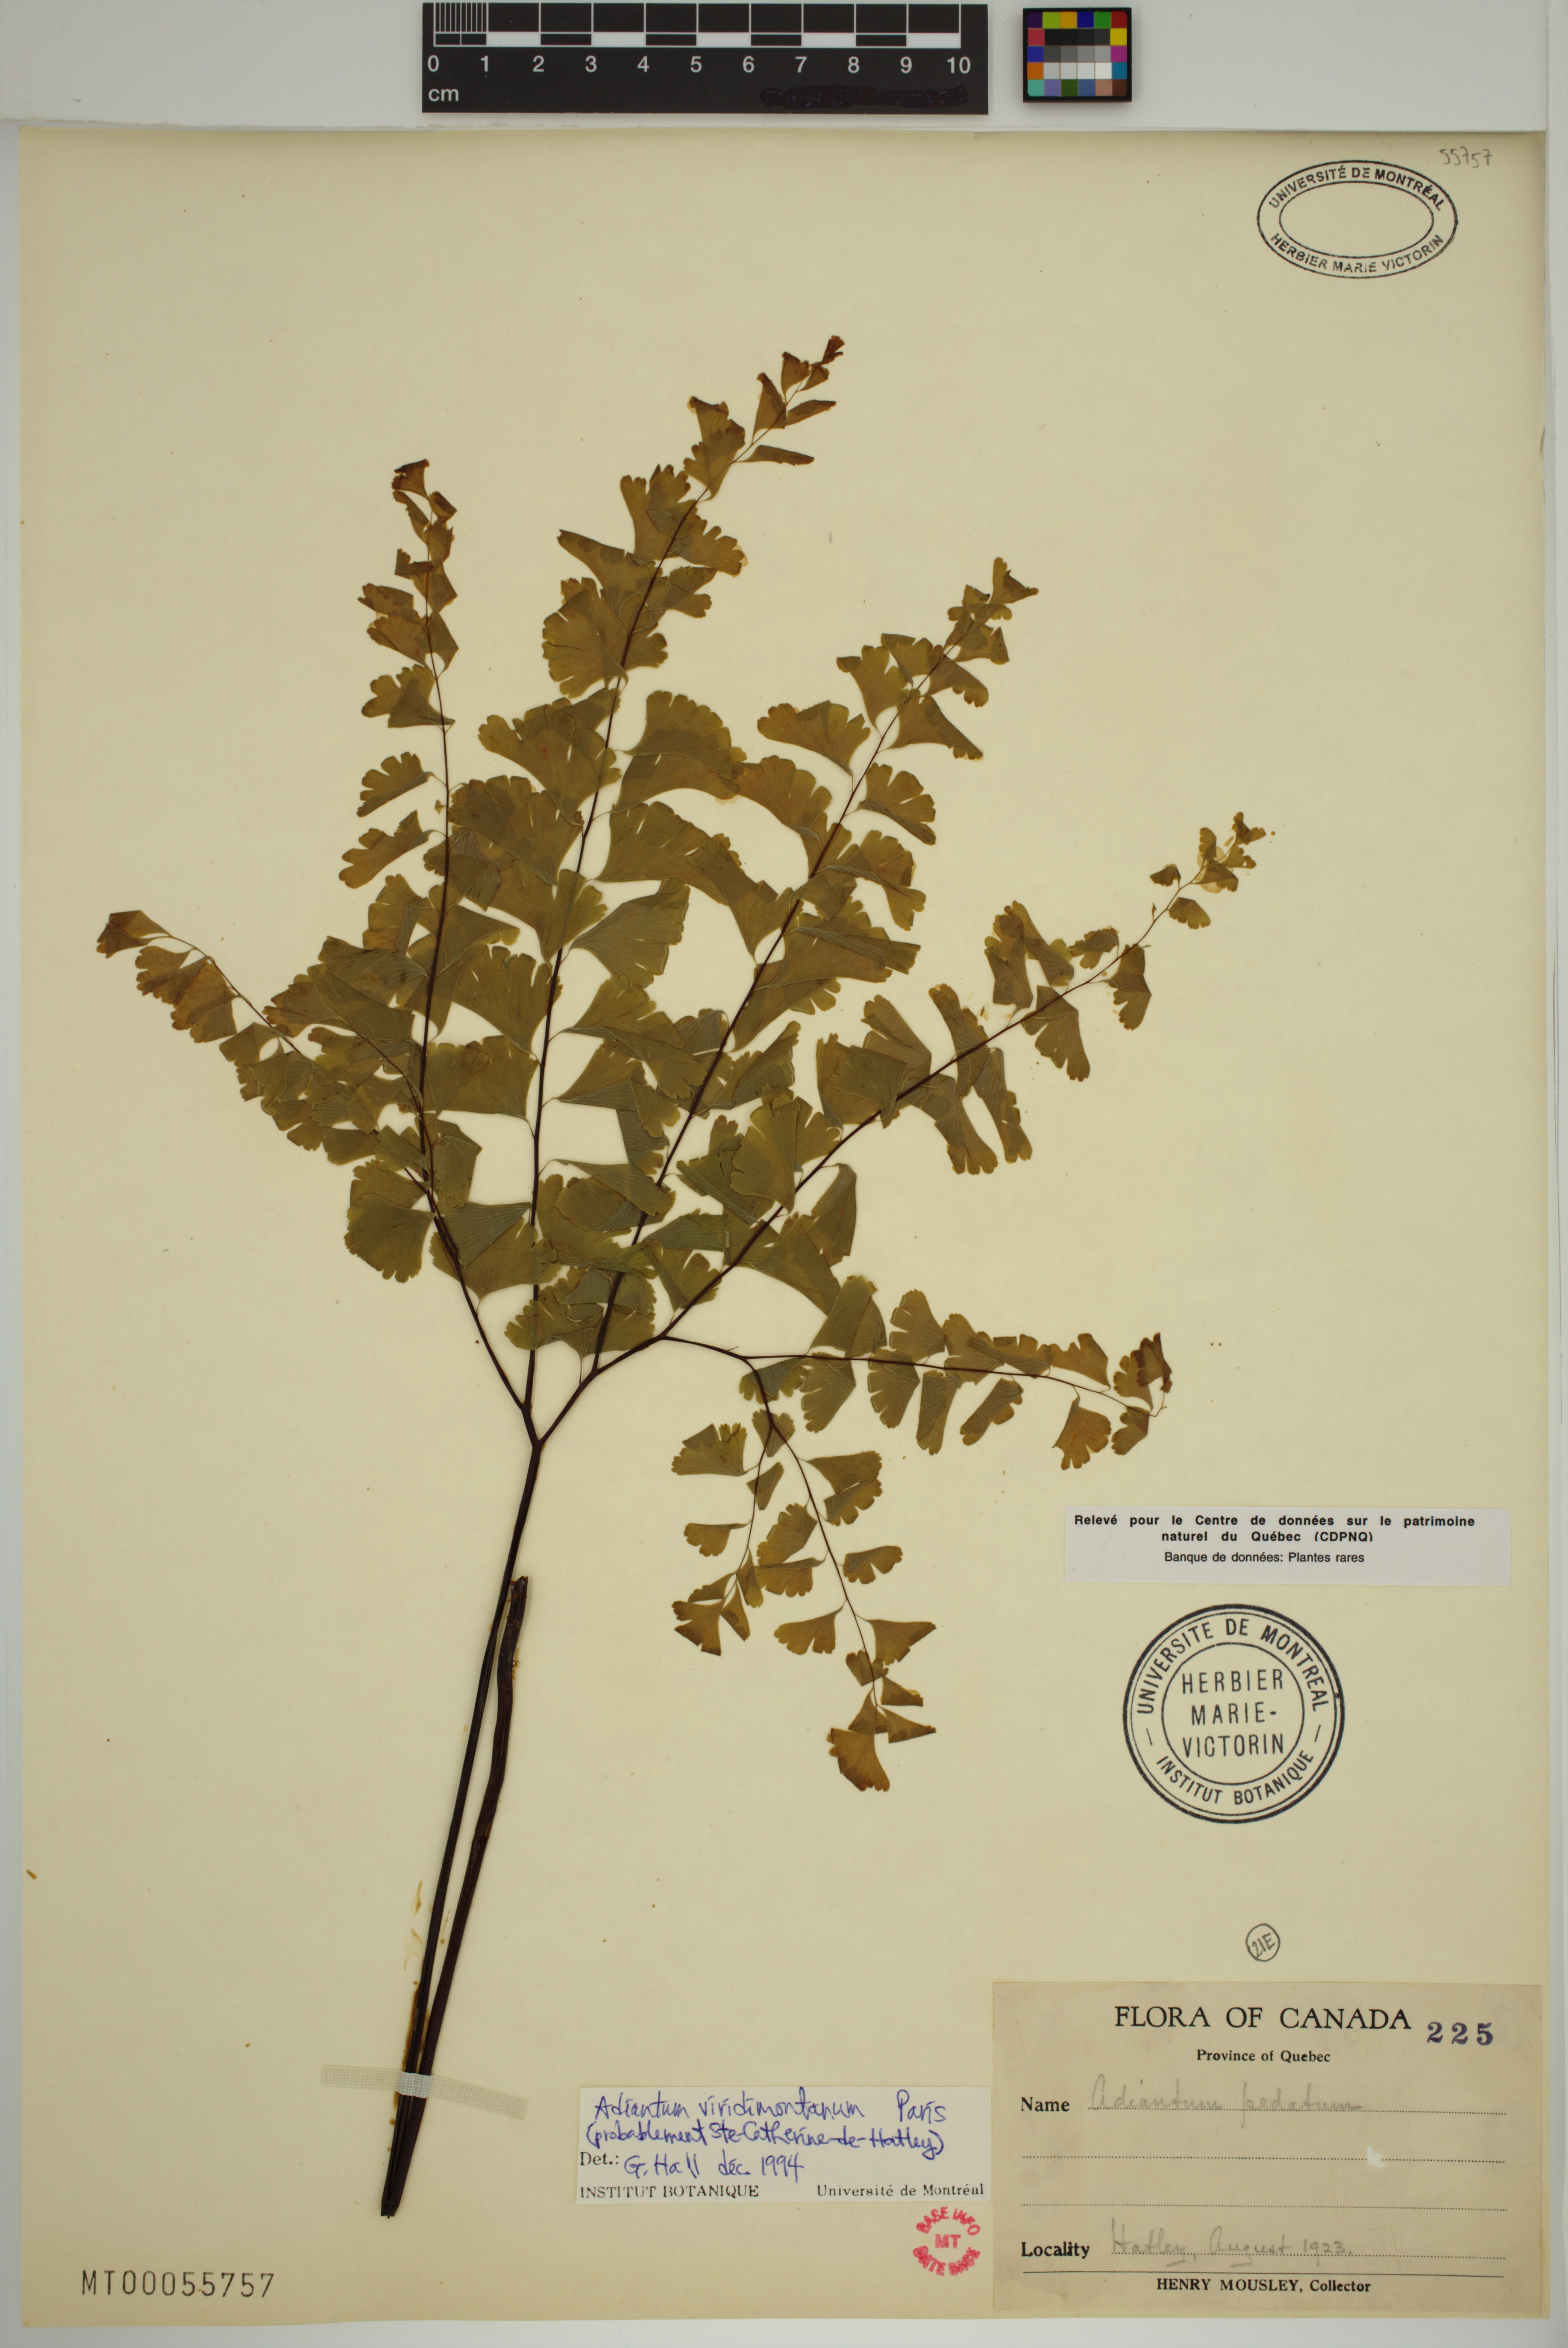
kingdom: Plantae
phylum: Tracheophyta
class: Polypodiopsida
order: Polypodiales
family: Pteridaceae
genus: Adiantum
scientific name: Adiantum viridimontanum
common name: Green mountain maidenhair
